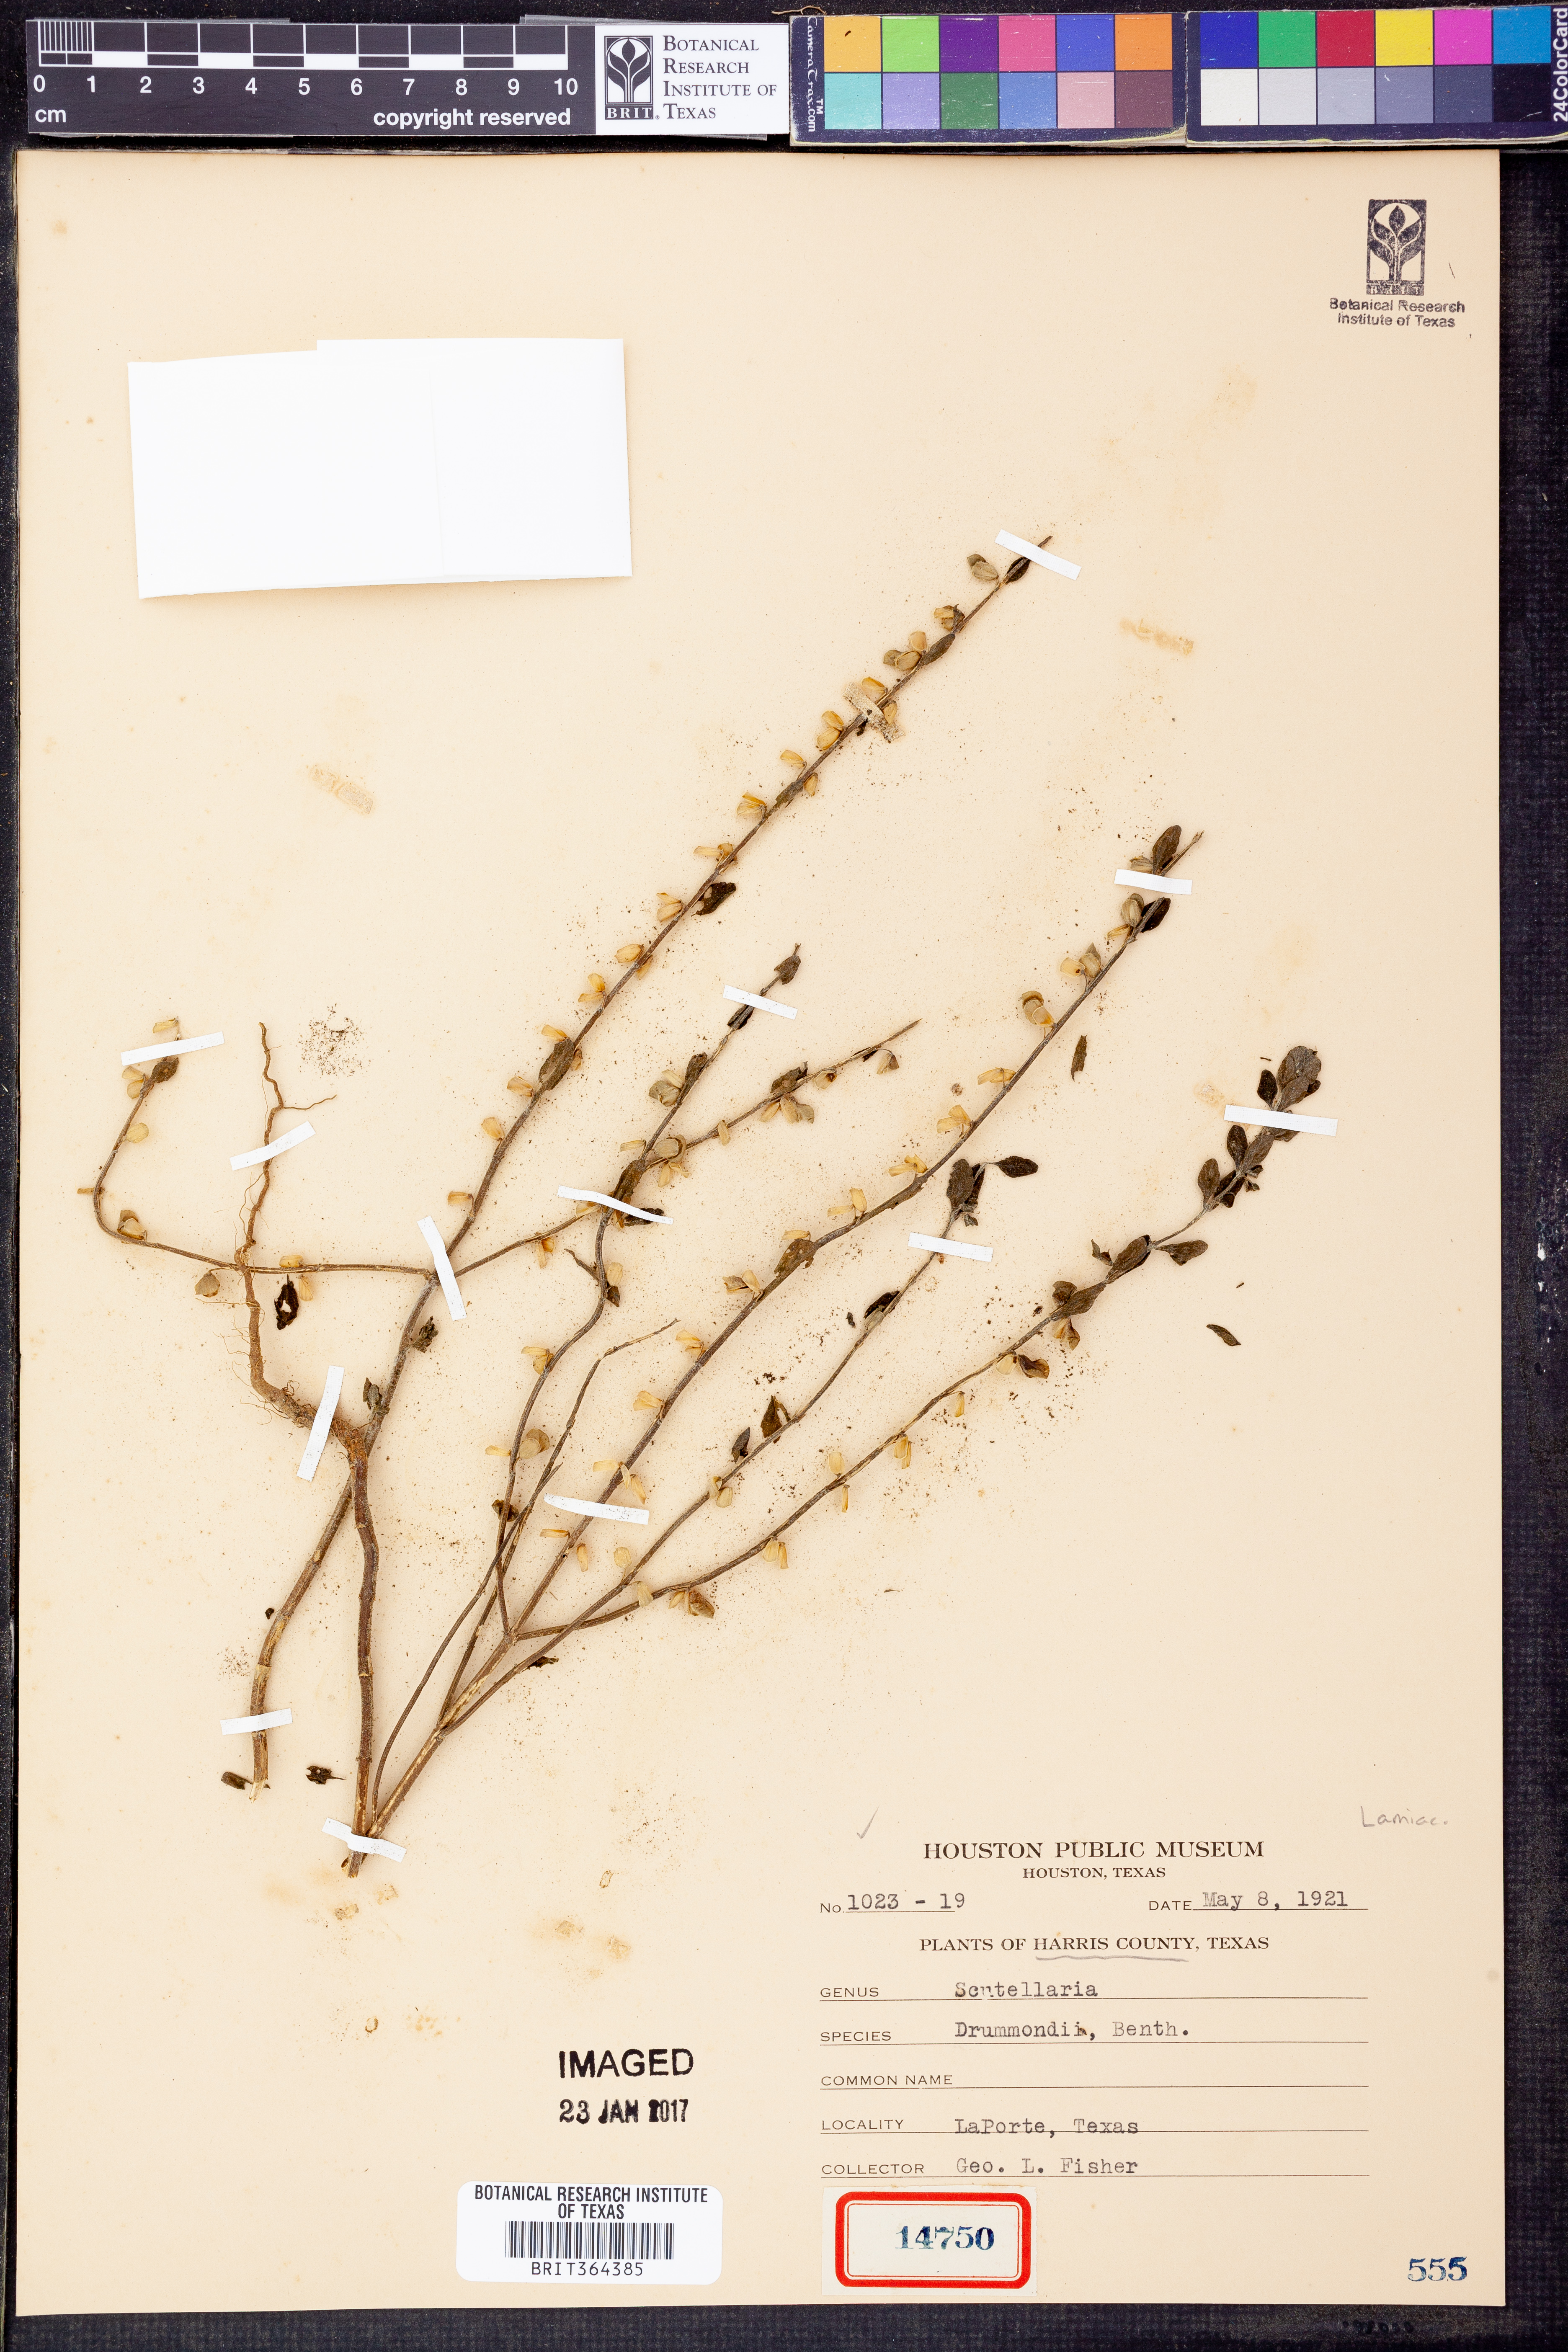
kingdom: Plantae
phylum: Tracheophyta
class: Magnoliopsida
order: Lamiales
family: Lamiaceae
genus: Scutellaria
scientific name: Scutellaria drummondii
